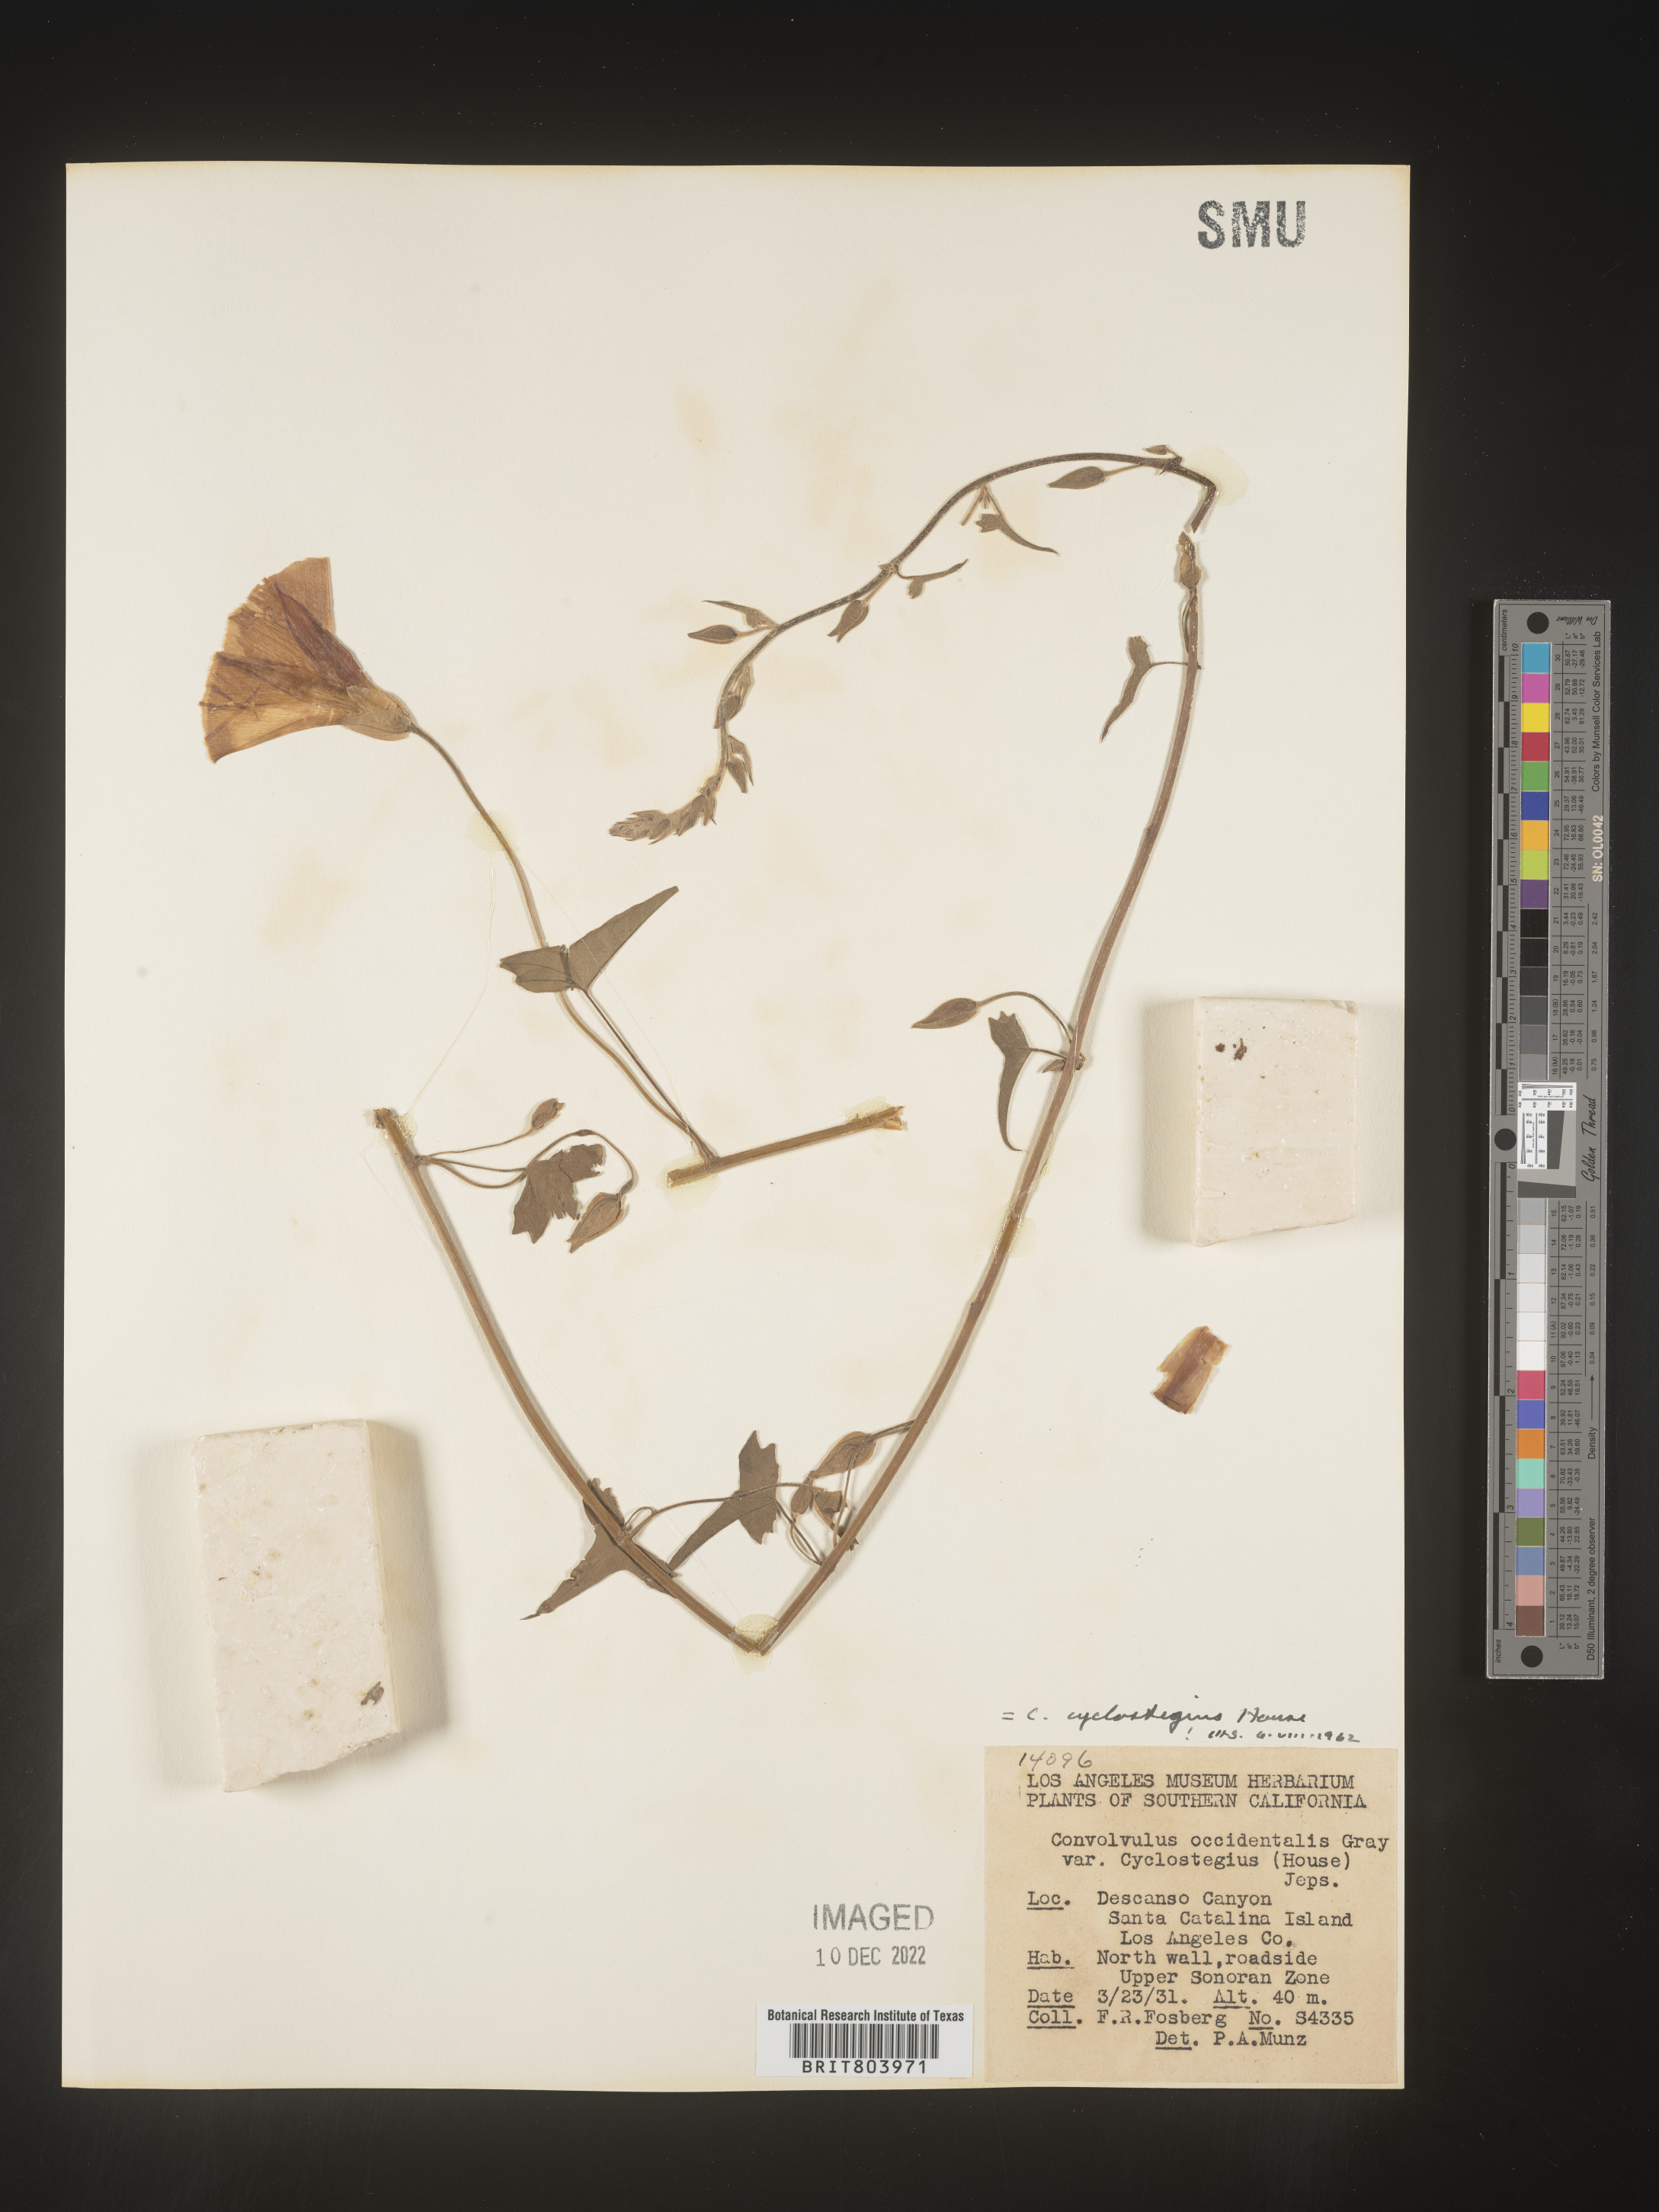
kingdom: Plantae
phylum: Tracheophyta
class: Magnoliopsida
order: Solanales
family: Convolvulaceae
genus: Calystegia
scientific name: Calystegia
